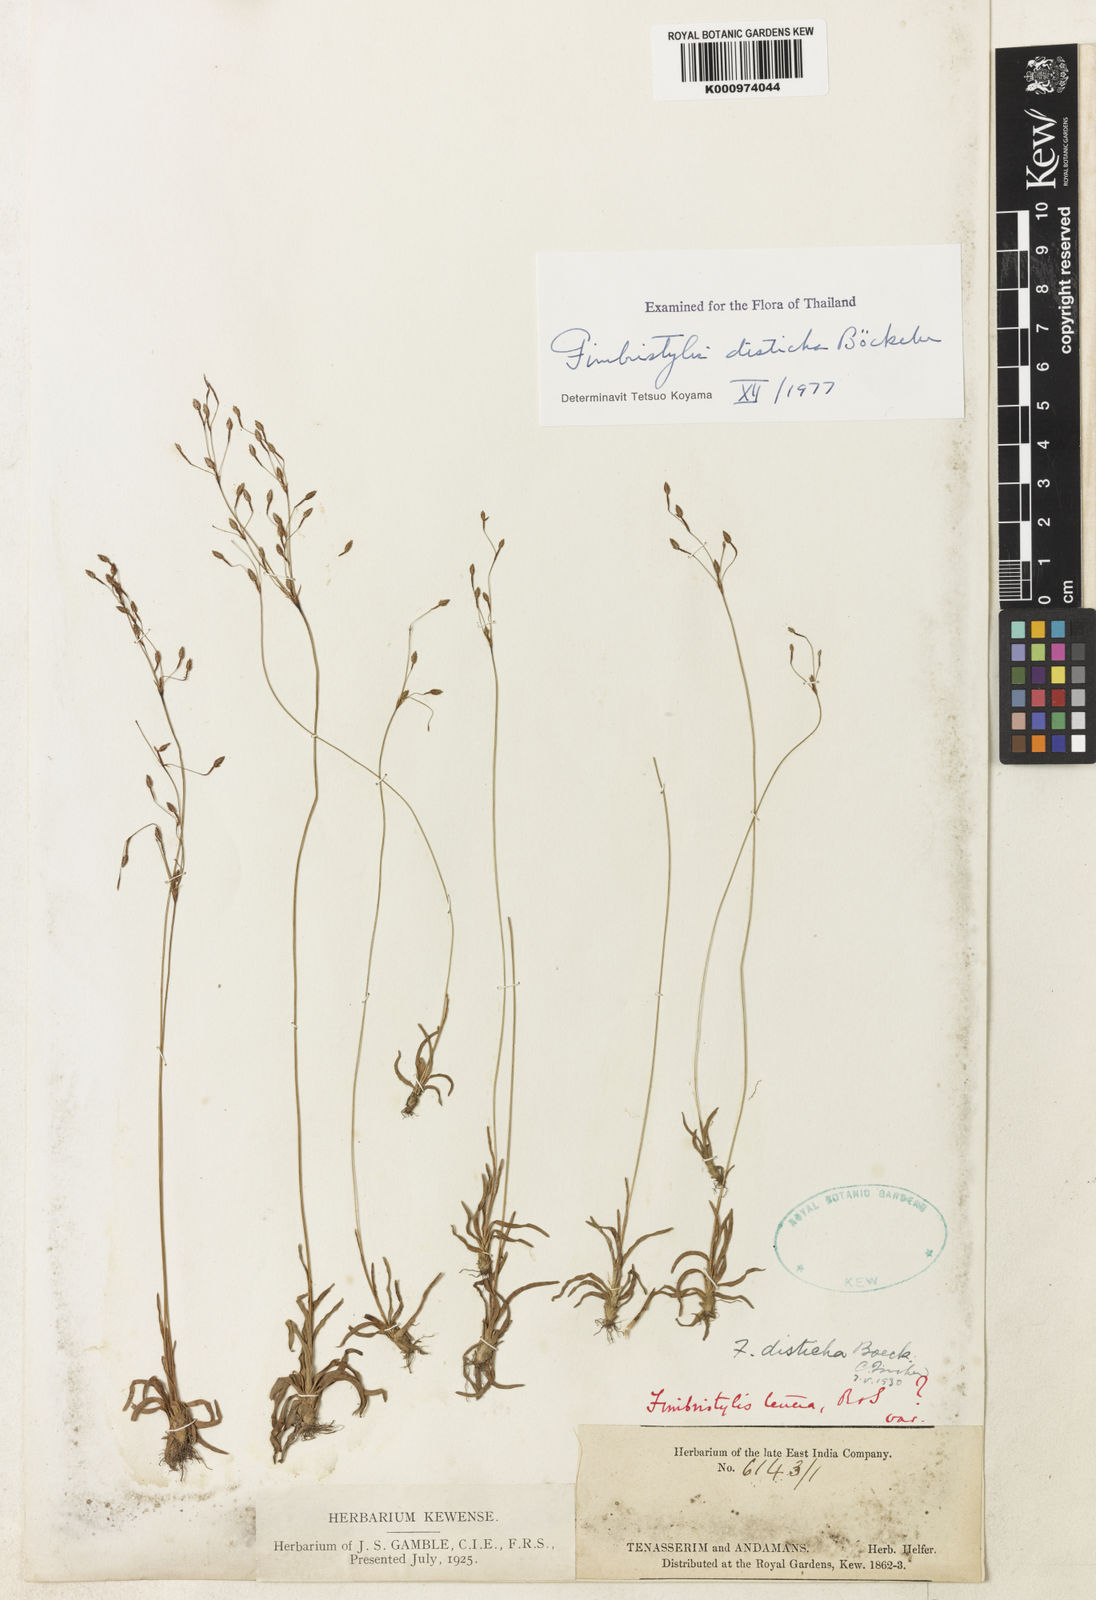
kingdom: Plantae
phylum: Tracheophyta
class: Liliopsida
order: Poales
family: Cyperaceae
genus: Fimbristylis
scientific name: Fimbristylis disticha
